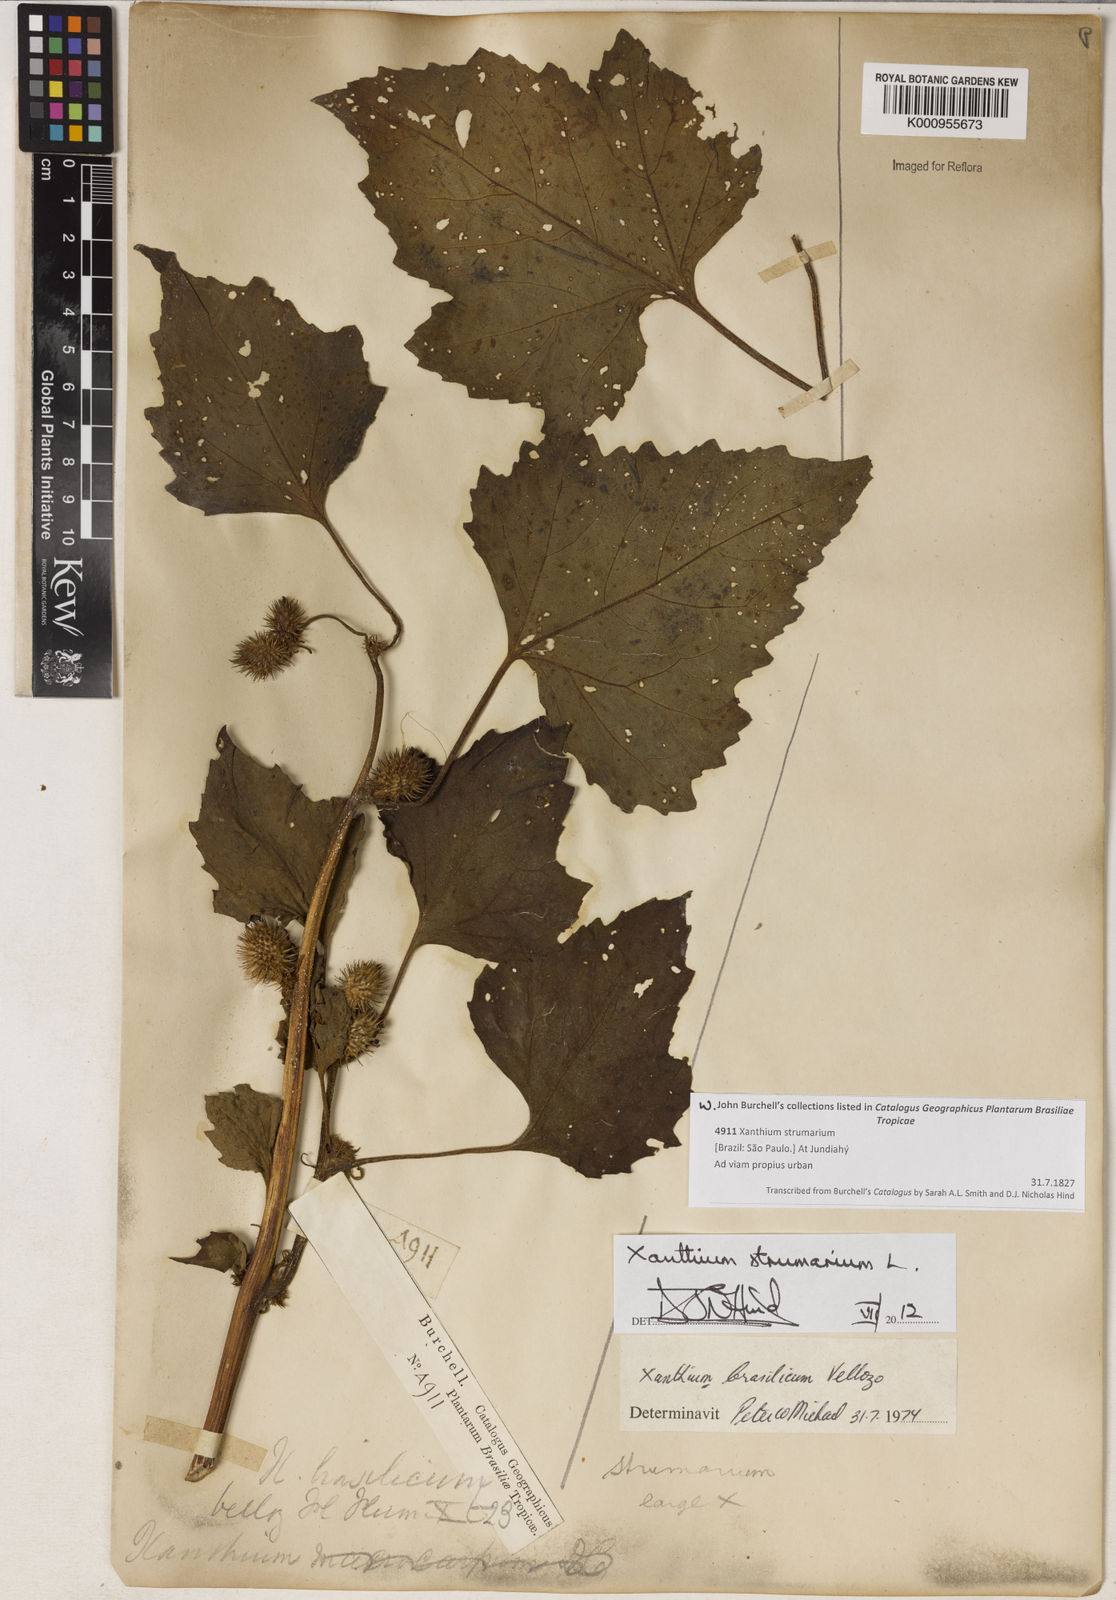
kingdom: Plantae
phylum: Tracheophyta
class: Magnoliopsida
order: Asterales
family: Asteraceae
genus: Xanthium
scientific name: Xanthium strumarium
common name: Rough cocklebur
